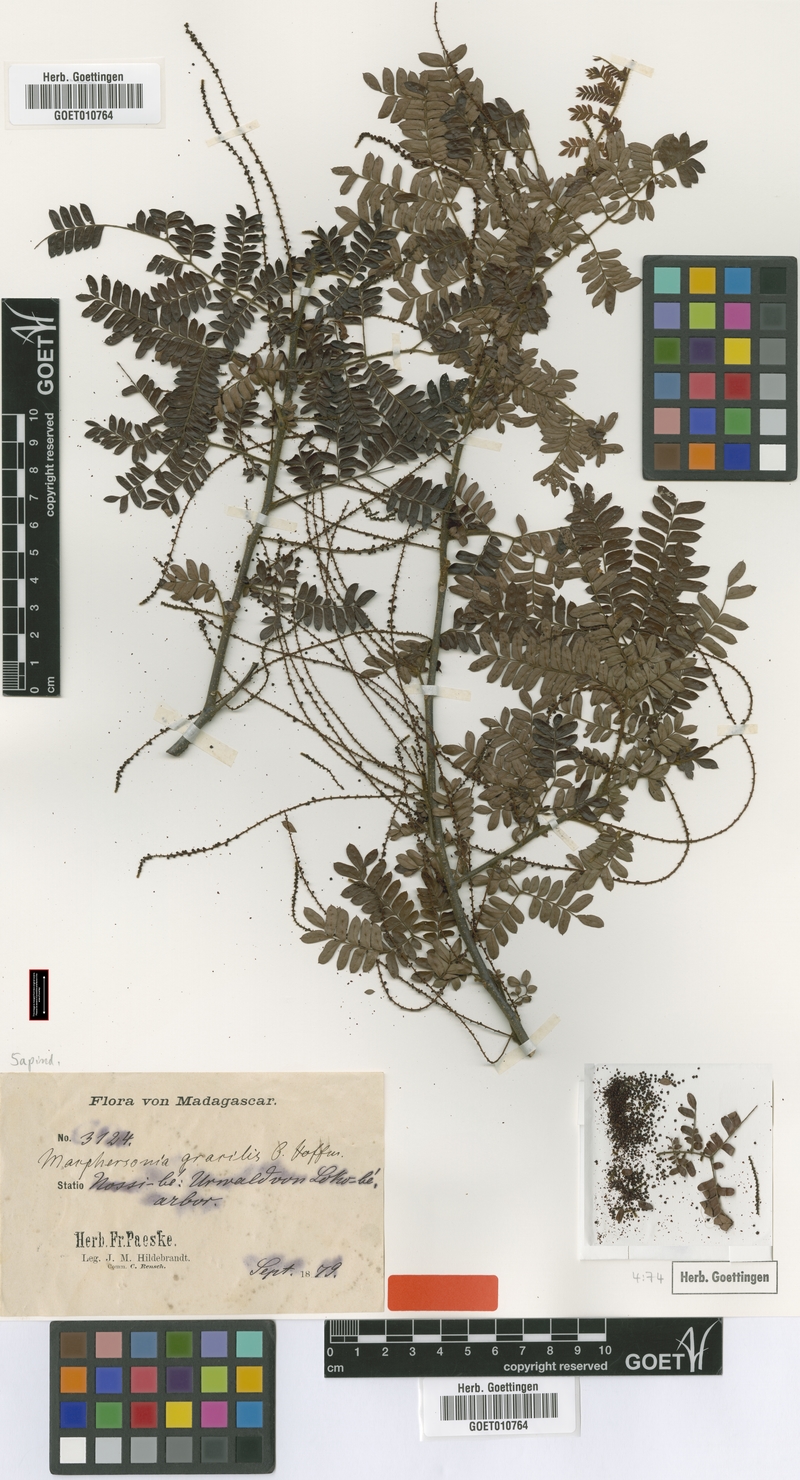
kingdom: Plantae
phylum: Tracheophyta
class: Magnoliopsida
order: Sapindales
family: Sapindaceae
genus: Macphersonia
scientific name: Macphersonia gracilis
